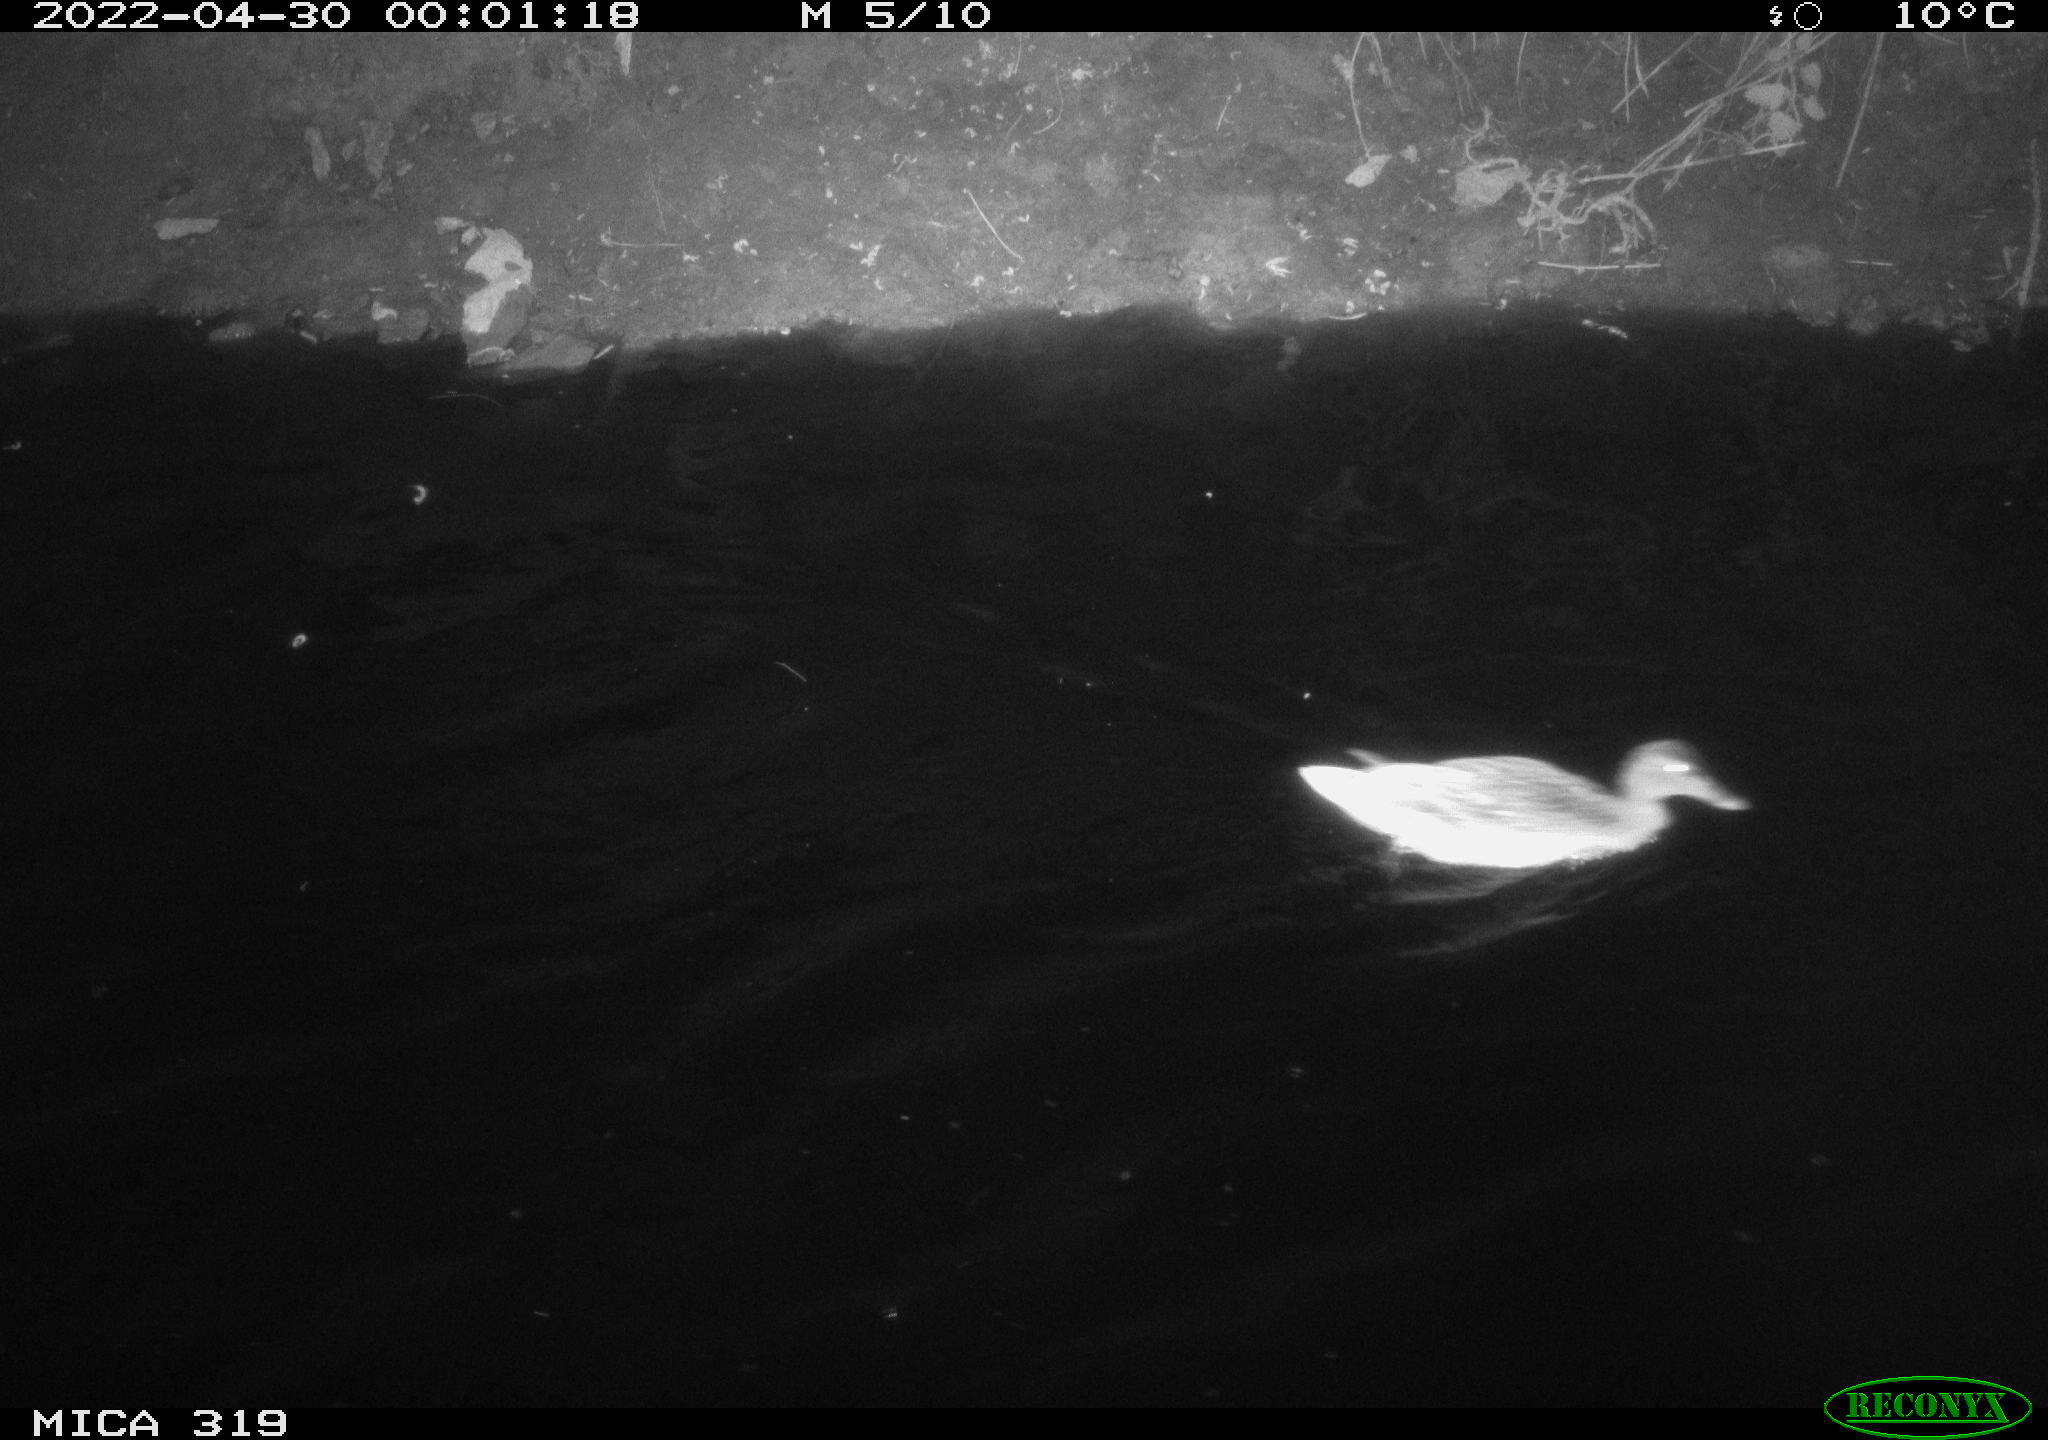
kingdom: Animalia
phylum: Chordata
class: Aves
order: Anseriformes
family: Anatidae
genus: Anas
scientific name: Anas platyrhynchos
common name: Mallard
